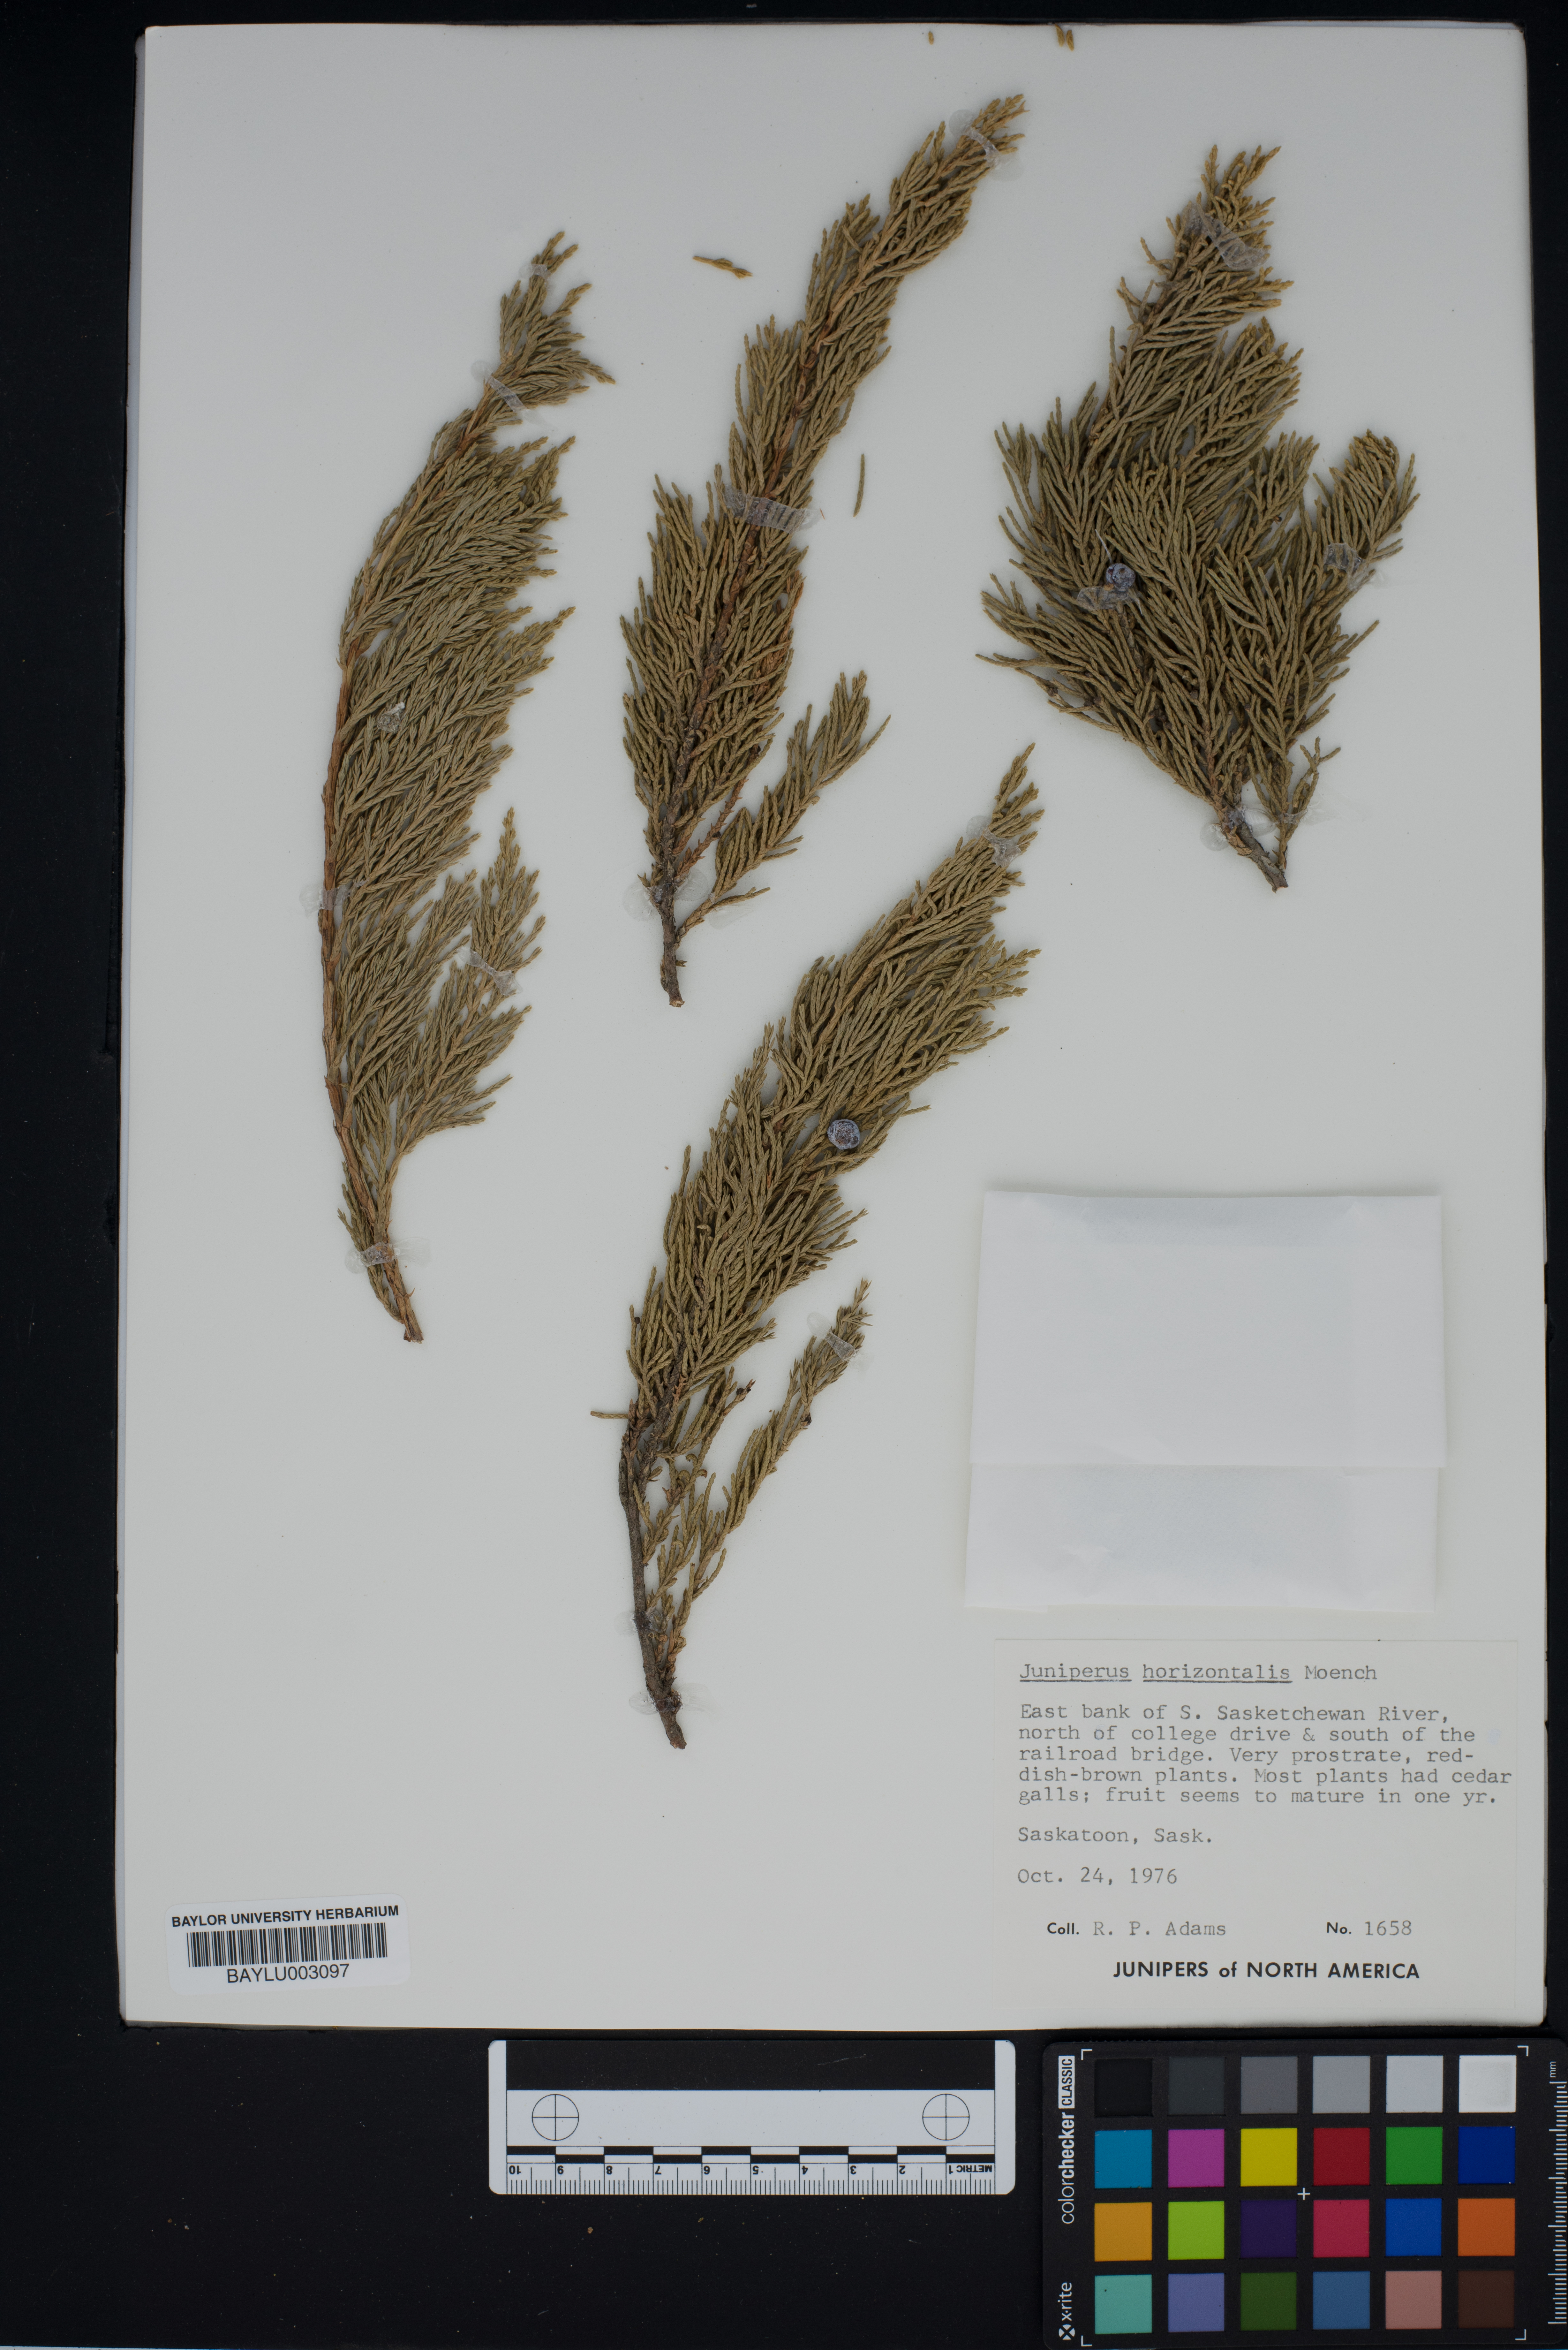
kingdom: Plantae
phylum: Tracheophyta
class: Pinopsida
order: Pinales
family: Cupressaceae
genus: Juniperus
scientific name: Juniperus horizontalis
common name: Creeping juniper
